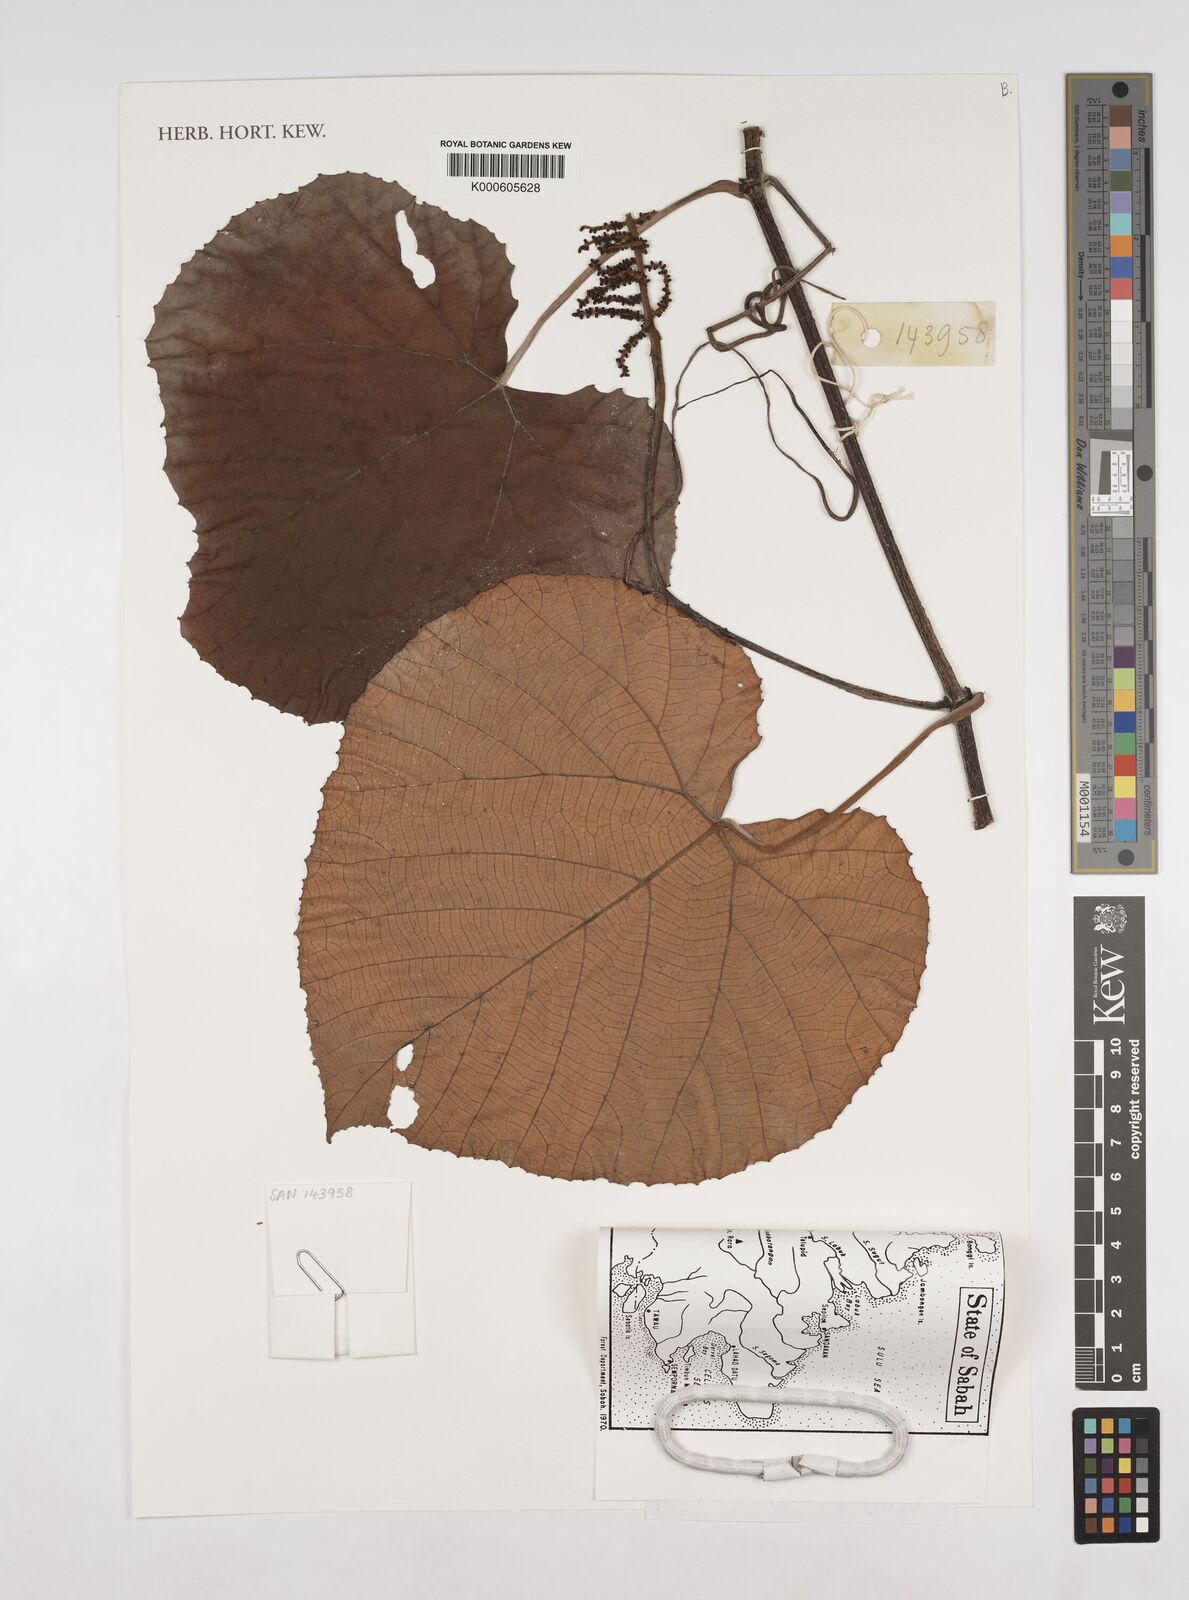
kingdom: Plantae
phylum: Tracheophyta
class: Magnoliopsida
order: Vitales
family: Vitaceae
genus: Ampelocissus
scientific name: Ampelocissus imperialis
